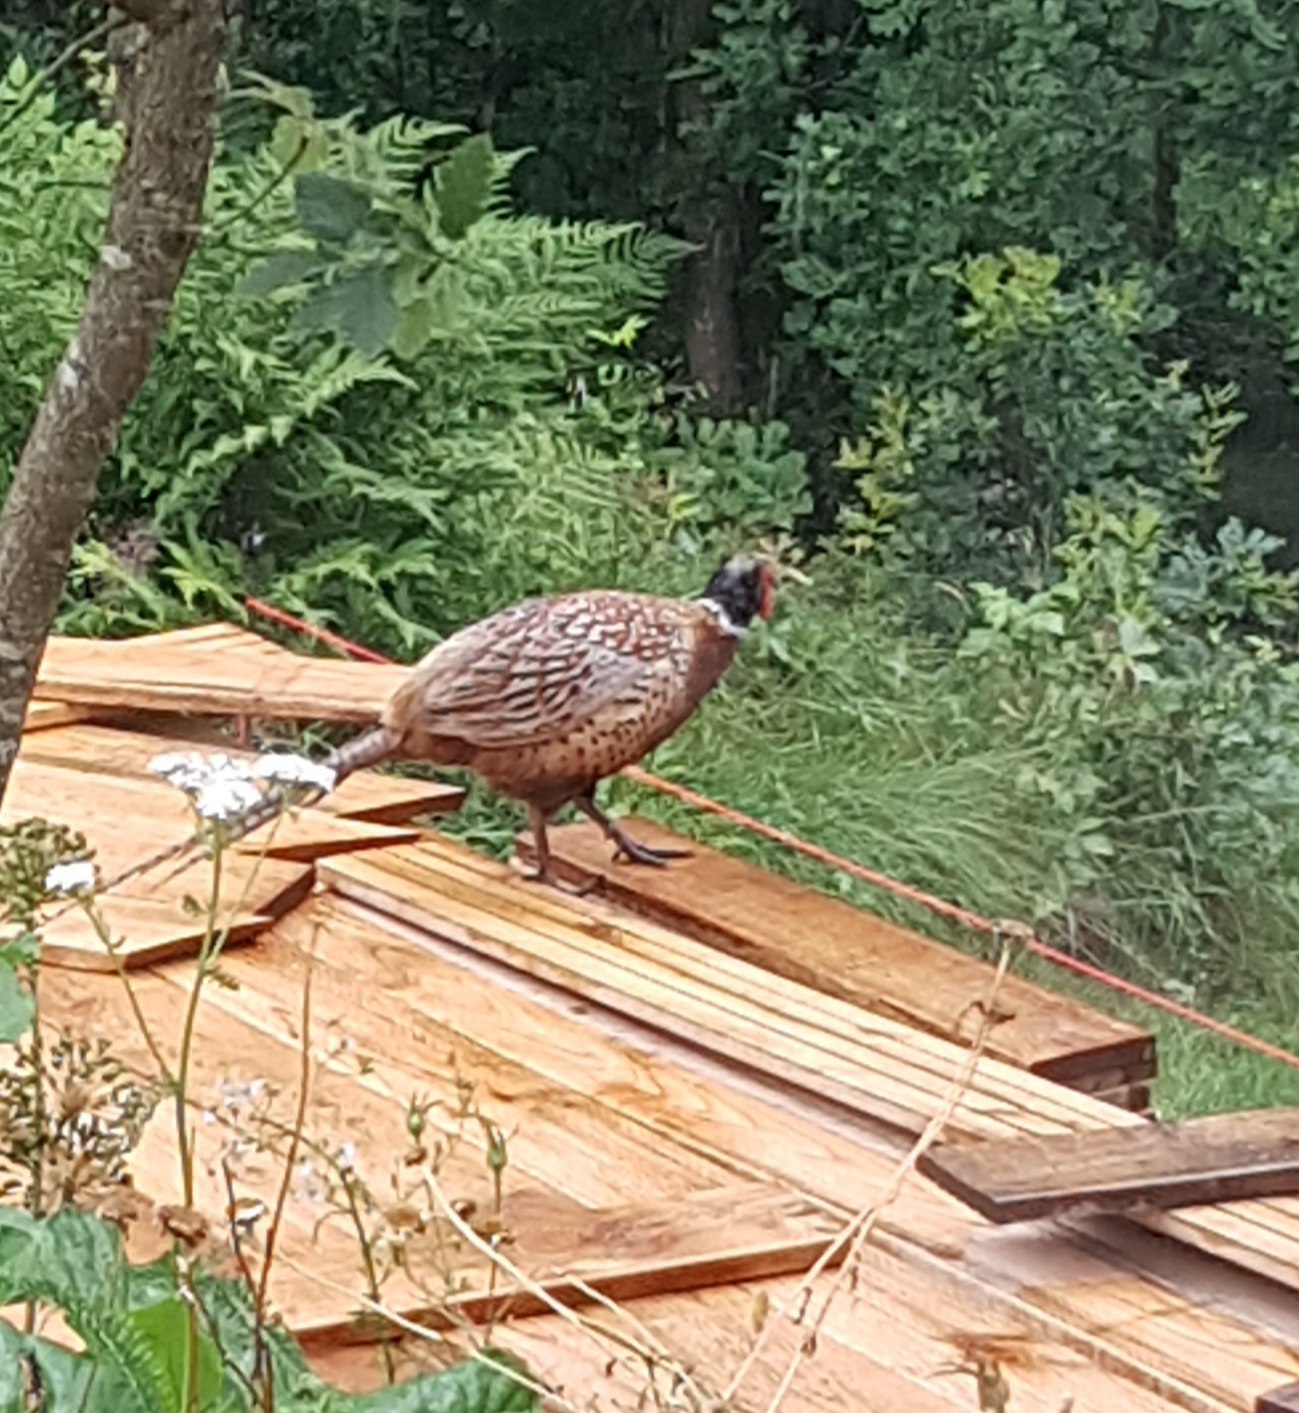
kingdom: Animalia
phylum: Chordata
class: Aves
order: Galliformes
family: Phasianidae
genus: Phasianus
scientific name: Phasianus colchicus
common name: Fasan
